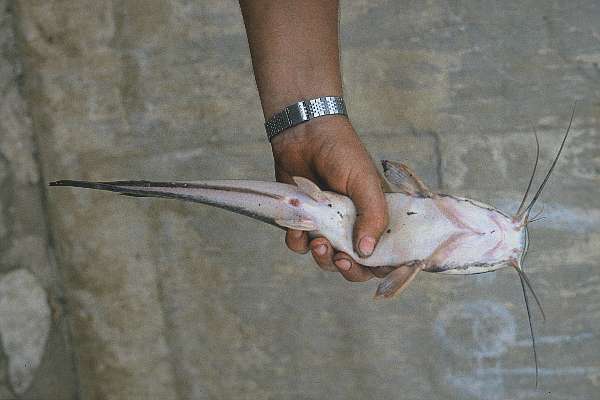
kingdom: Animalia
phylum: Chordata
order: Siluriformes
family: Clariidae
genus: Clarias
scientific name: Clarias gariepinus
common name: African catfish
